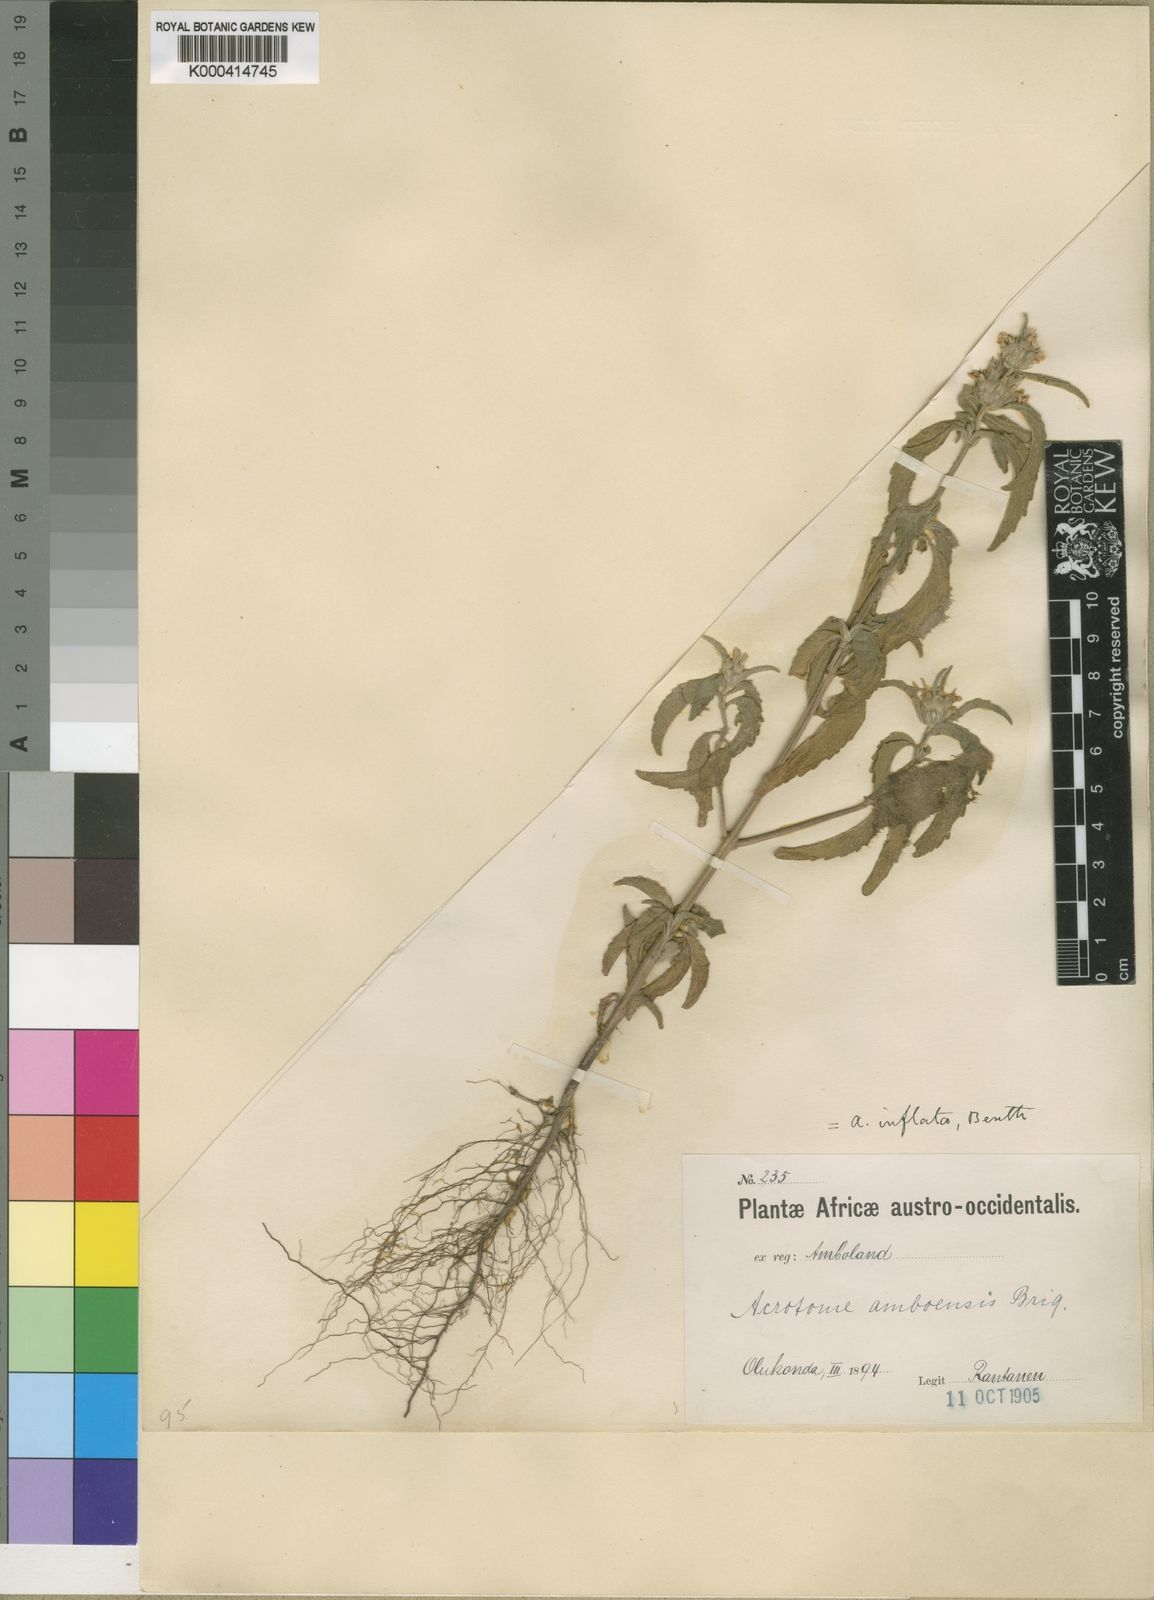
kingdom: Plantae
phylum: Tracheophyta
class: Magnoliopsida
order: Lamiales
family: Lamiaceae
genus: Acrotome
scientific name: Acrotome inflata
